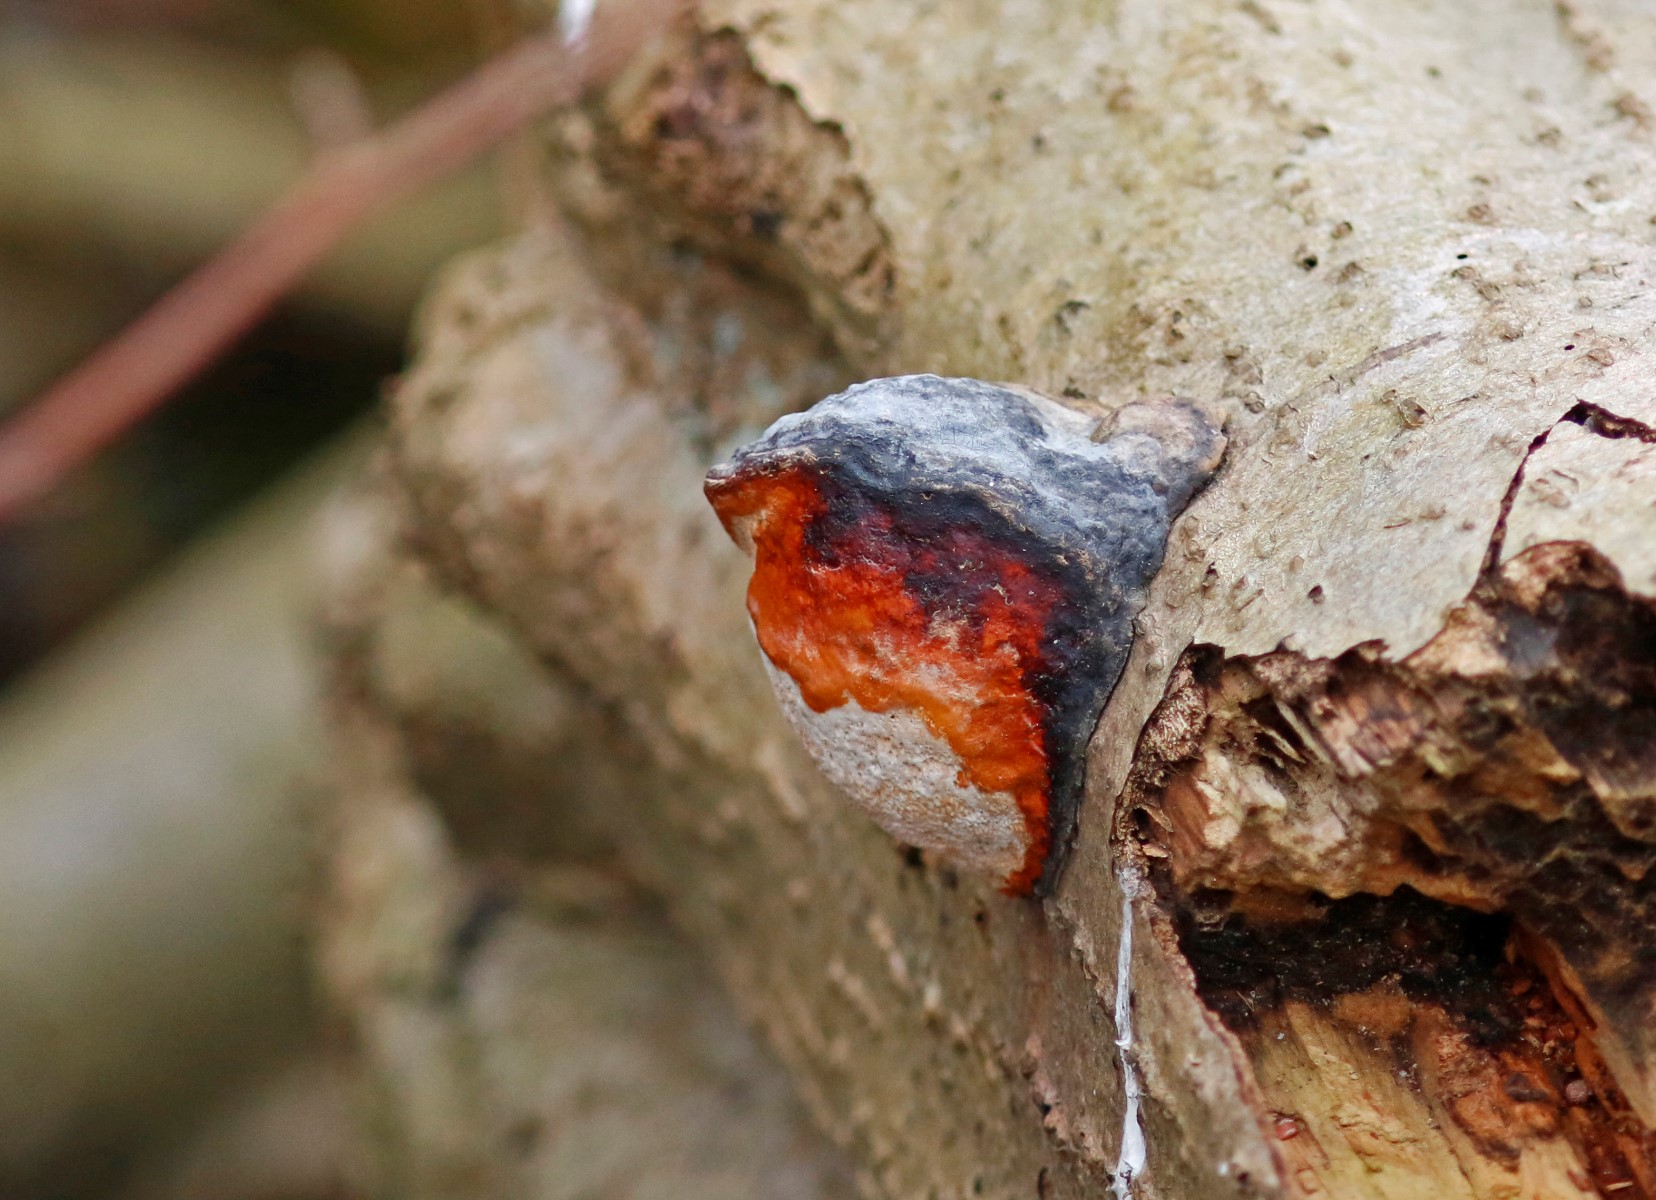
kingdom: Fungi
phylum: Basidiomycota
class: Agaricomycetes
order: Polyporales
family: Fomitopsidaceae
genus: Fomitopsis
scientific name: Fomitopsis pinicola
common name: randbæltet hovporesvamp
